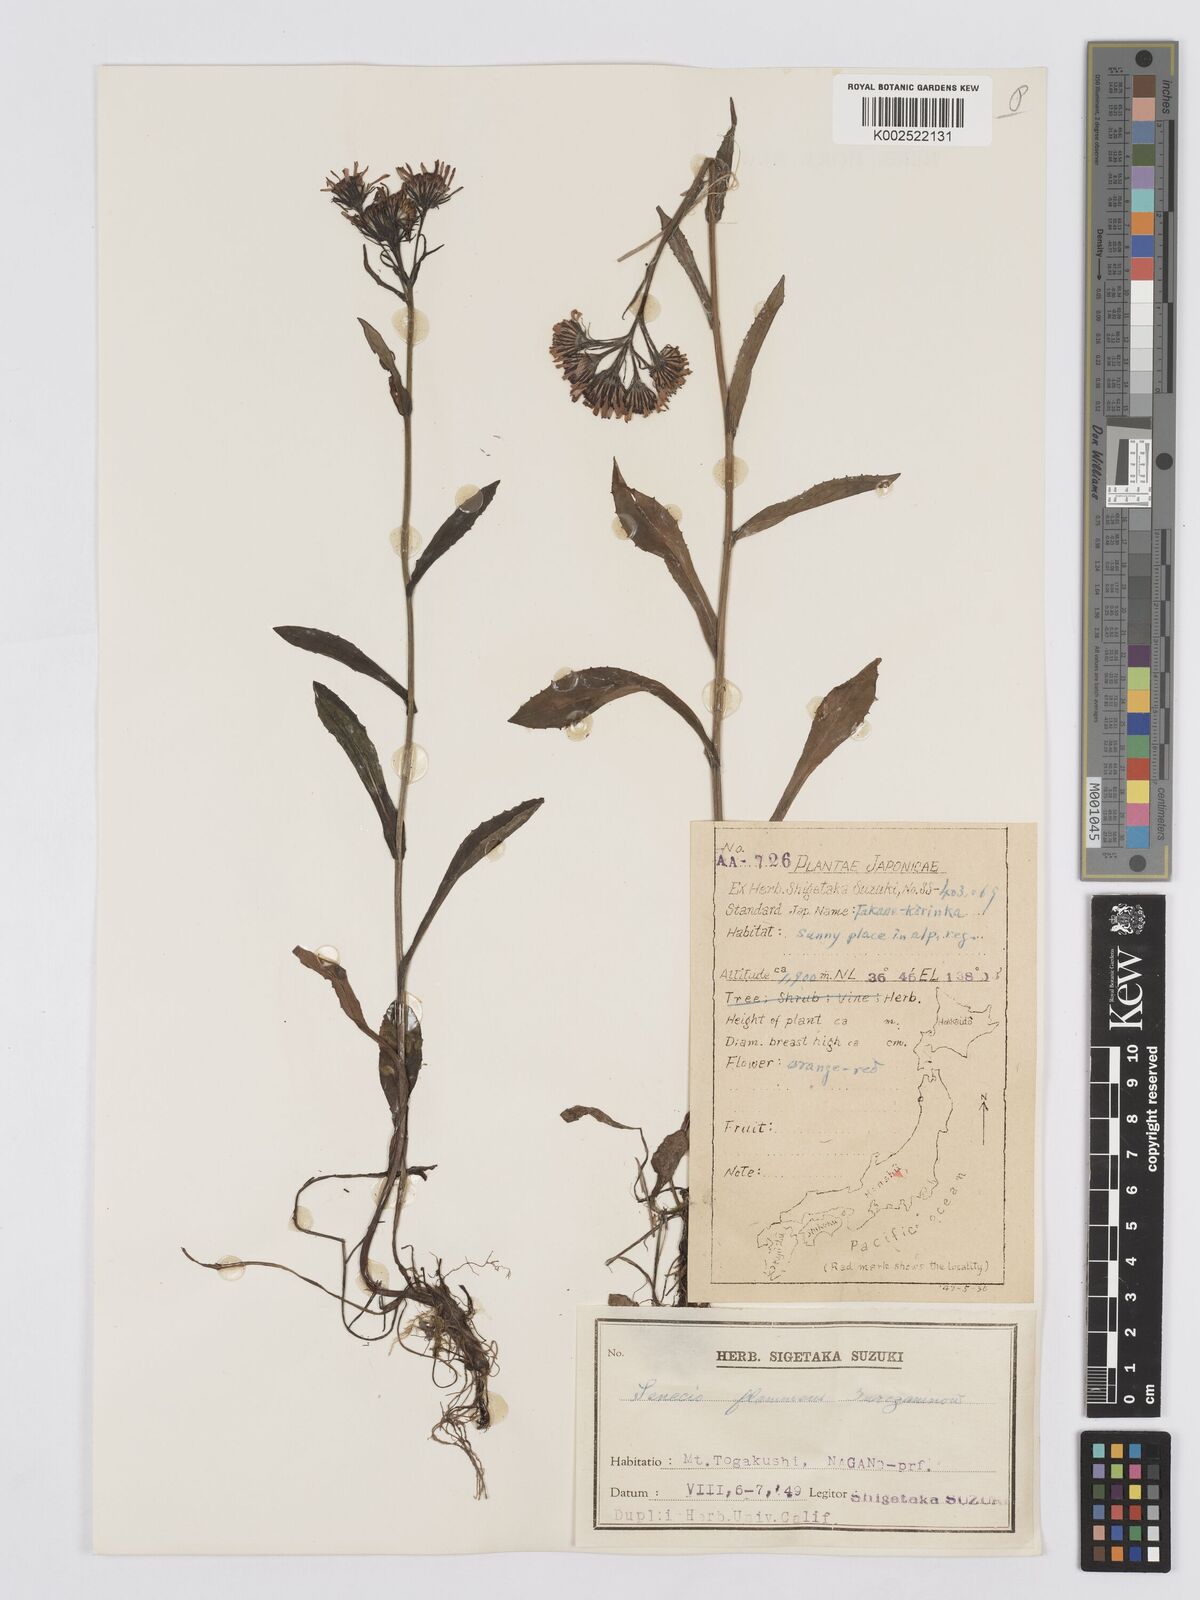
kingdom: Plantae
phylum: Tracheophyta
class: Magnoliopsida
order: Asterales
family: Asteraceae
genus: Tephroseris
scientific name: Tephroseris flammea
